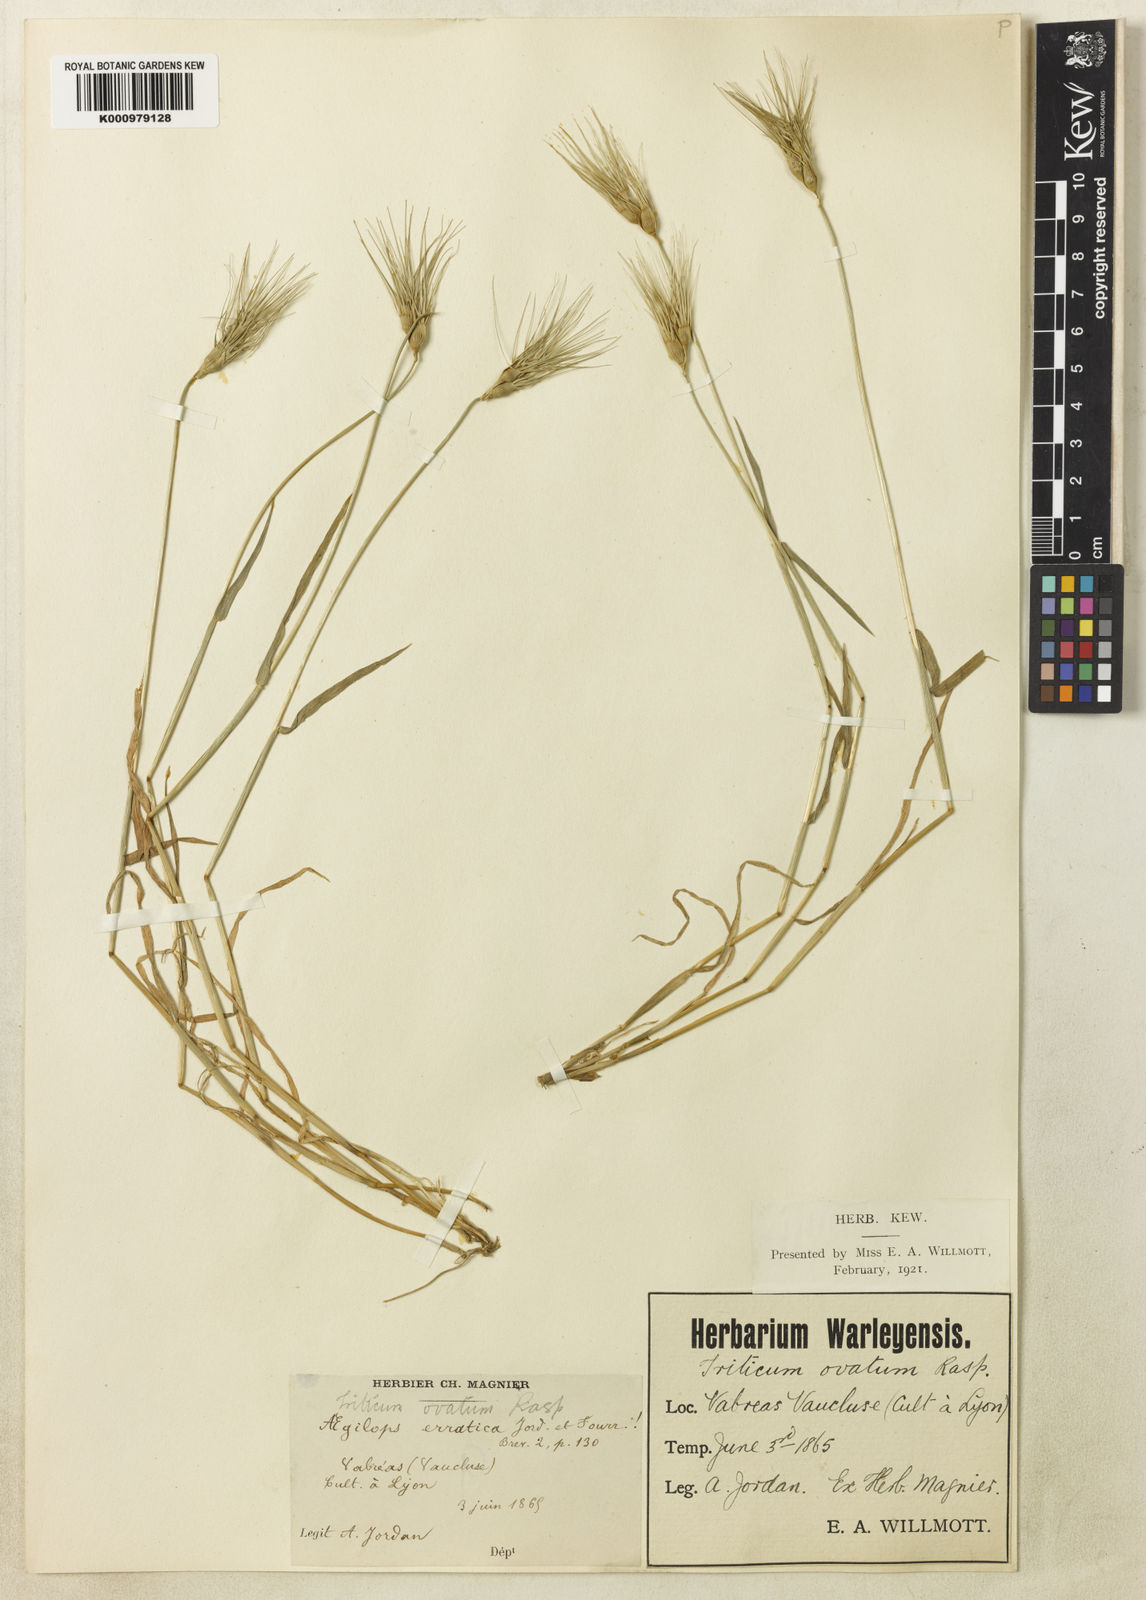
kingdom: Plantae
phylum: Tracheophyta
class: Liliopsida
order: Poales
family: Poaceae
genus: Aegilops
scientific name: Aegilops geniculata
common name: Ovate goat grass
